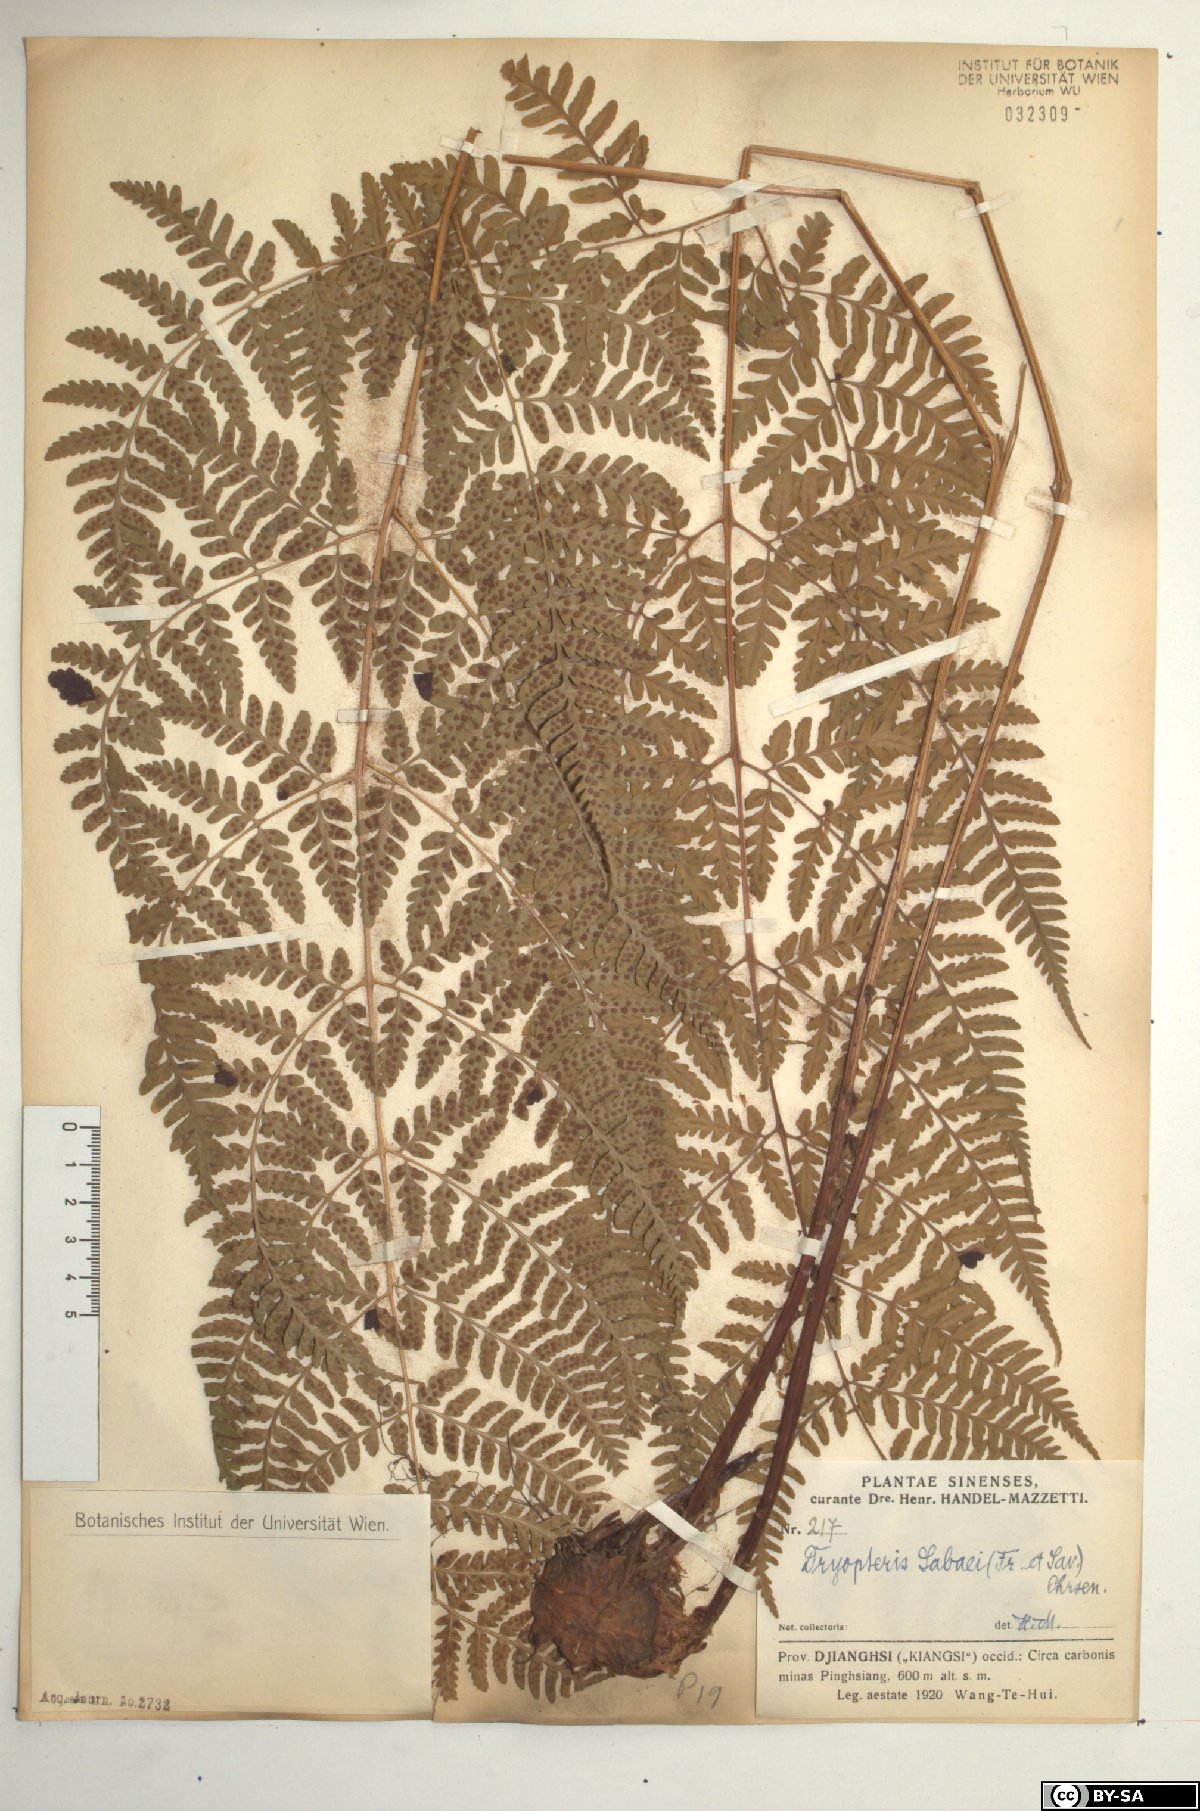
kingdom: Plantae
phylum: Tracheophyta
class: Polypodiopsida
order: Polypodiales
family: Dryopteridaceae
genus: Dryopteris
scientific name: Dryopteris sabaei
